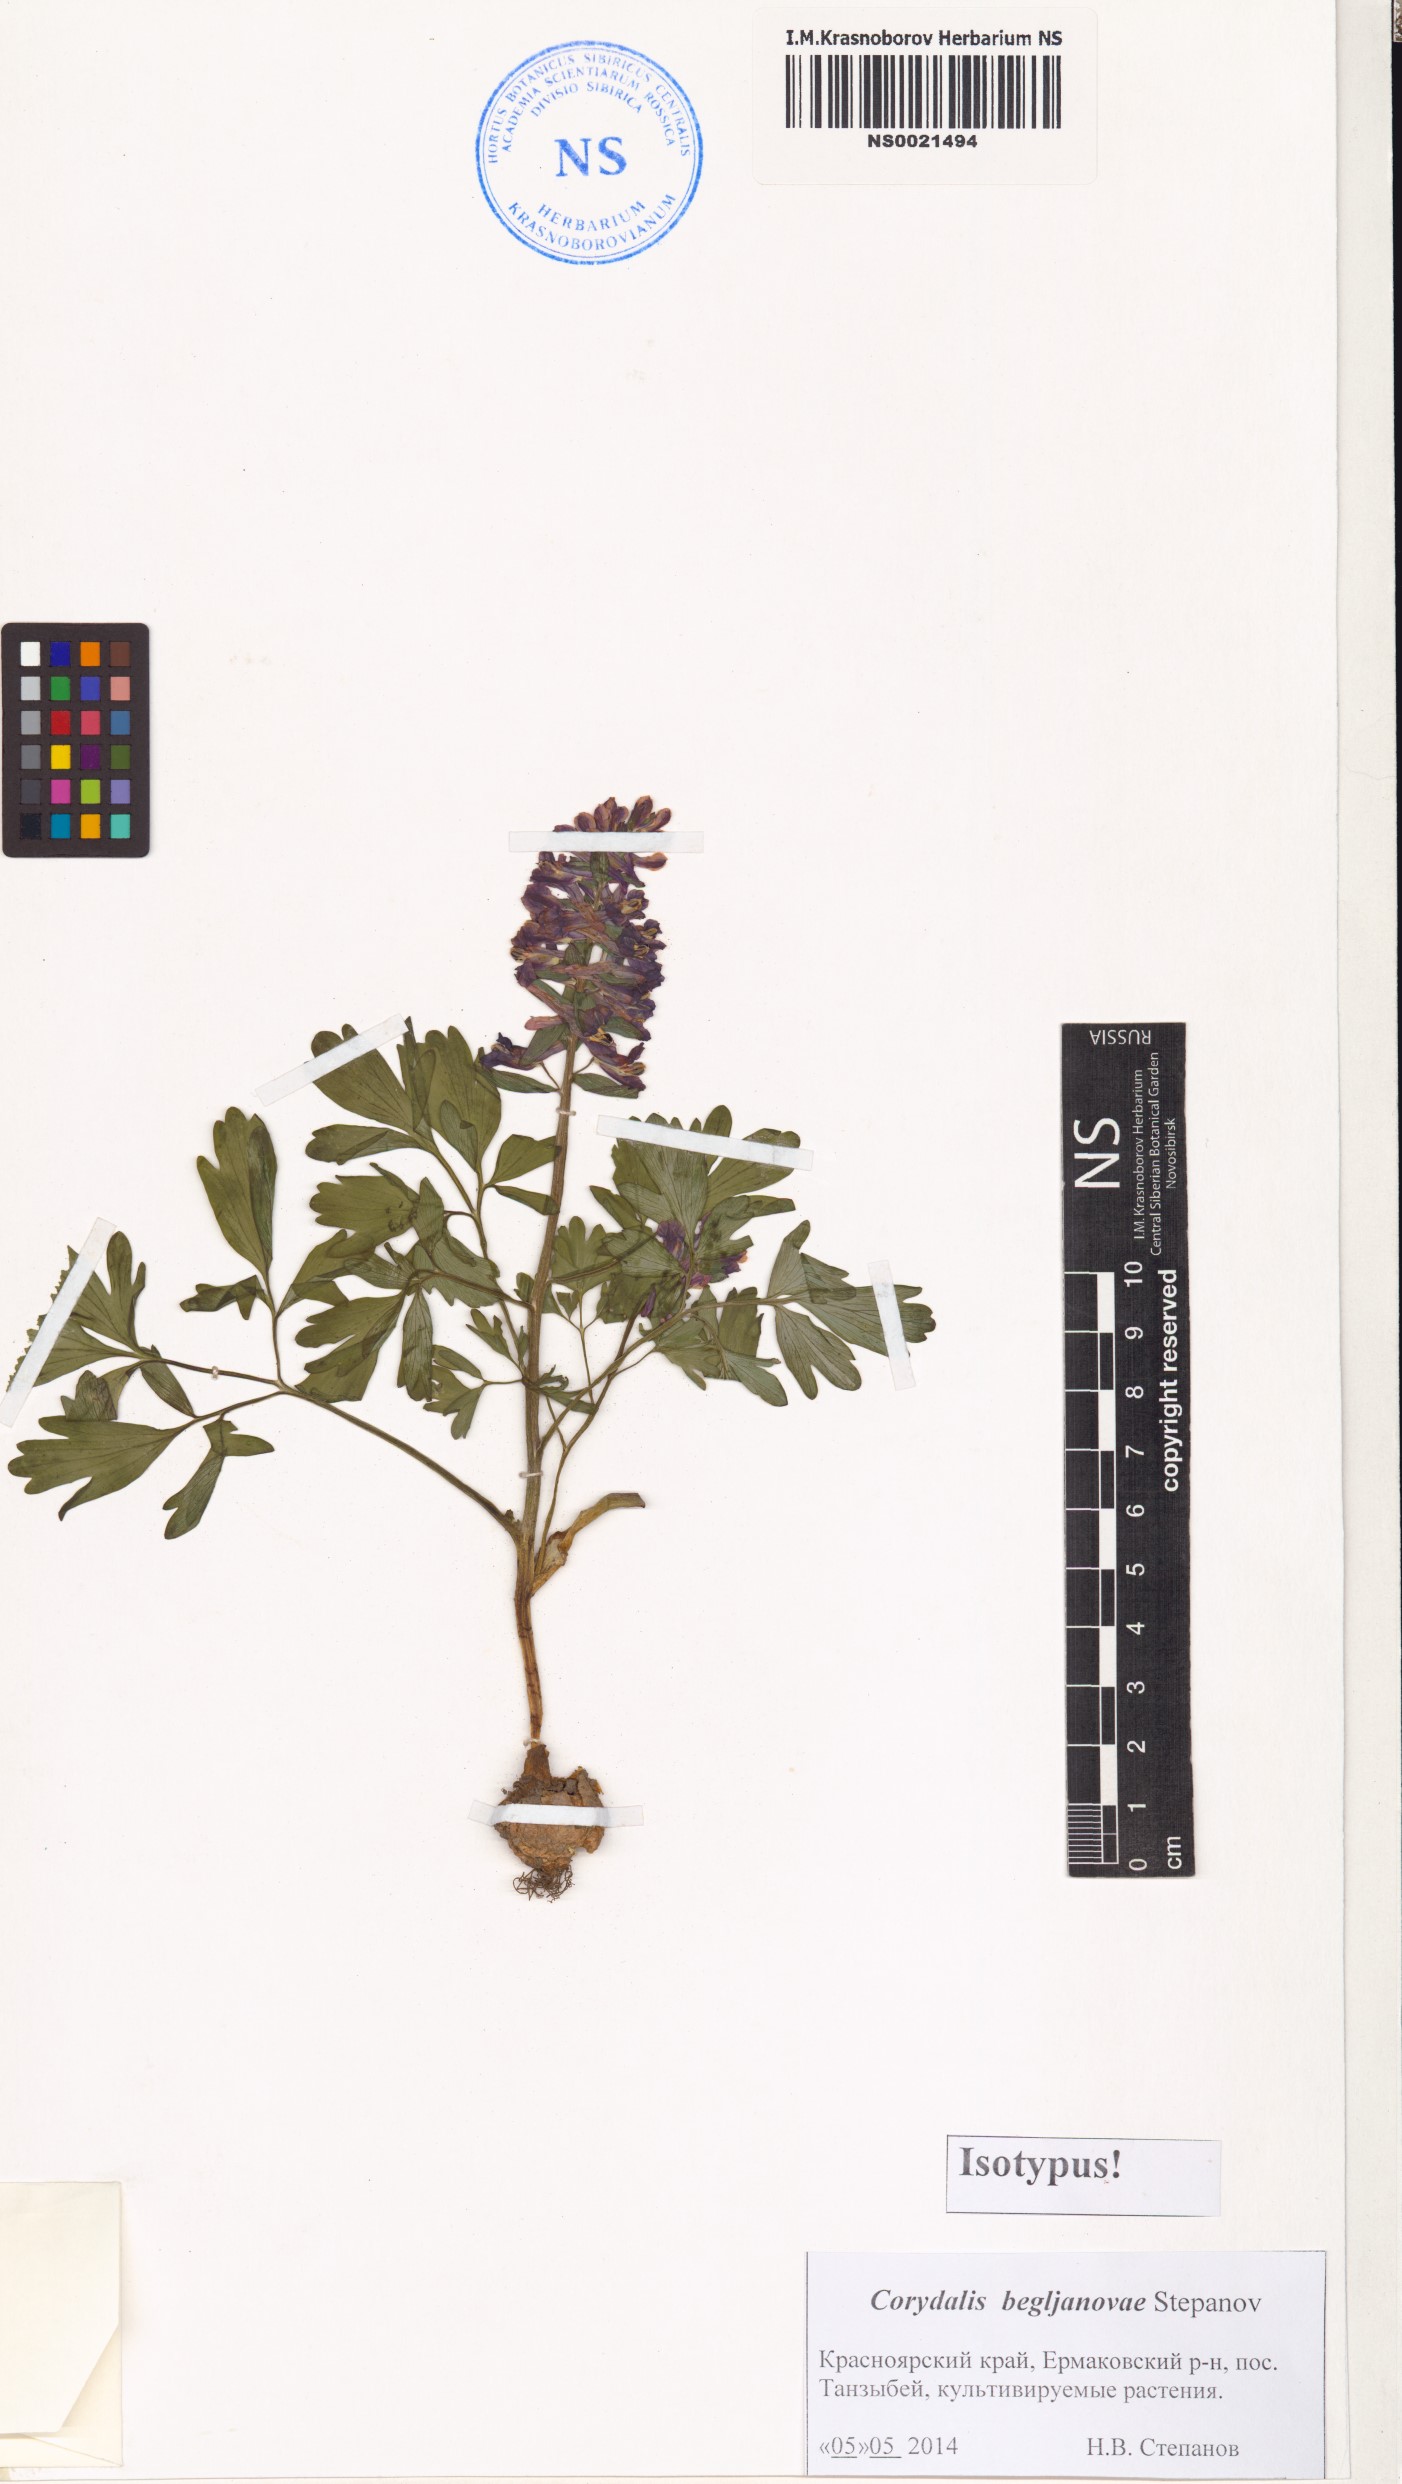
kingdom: Plantae
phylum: Tracheophyta
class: Magnoliopsida
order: Ranunculales
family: Papaveraceae
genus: Corydalis
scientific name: Corydalis begljanovae
